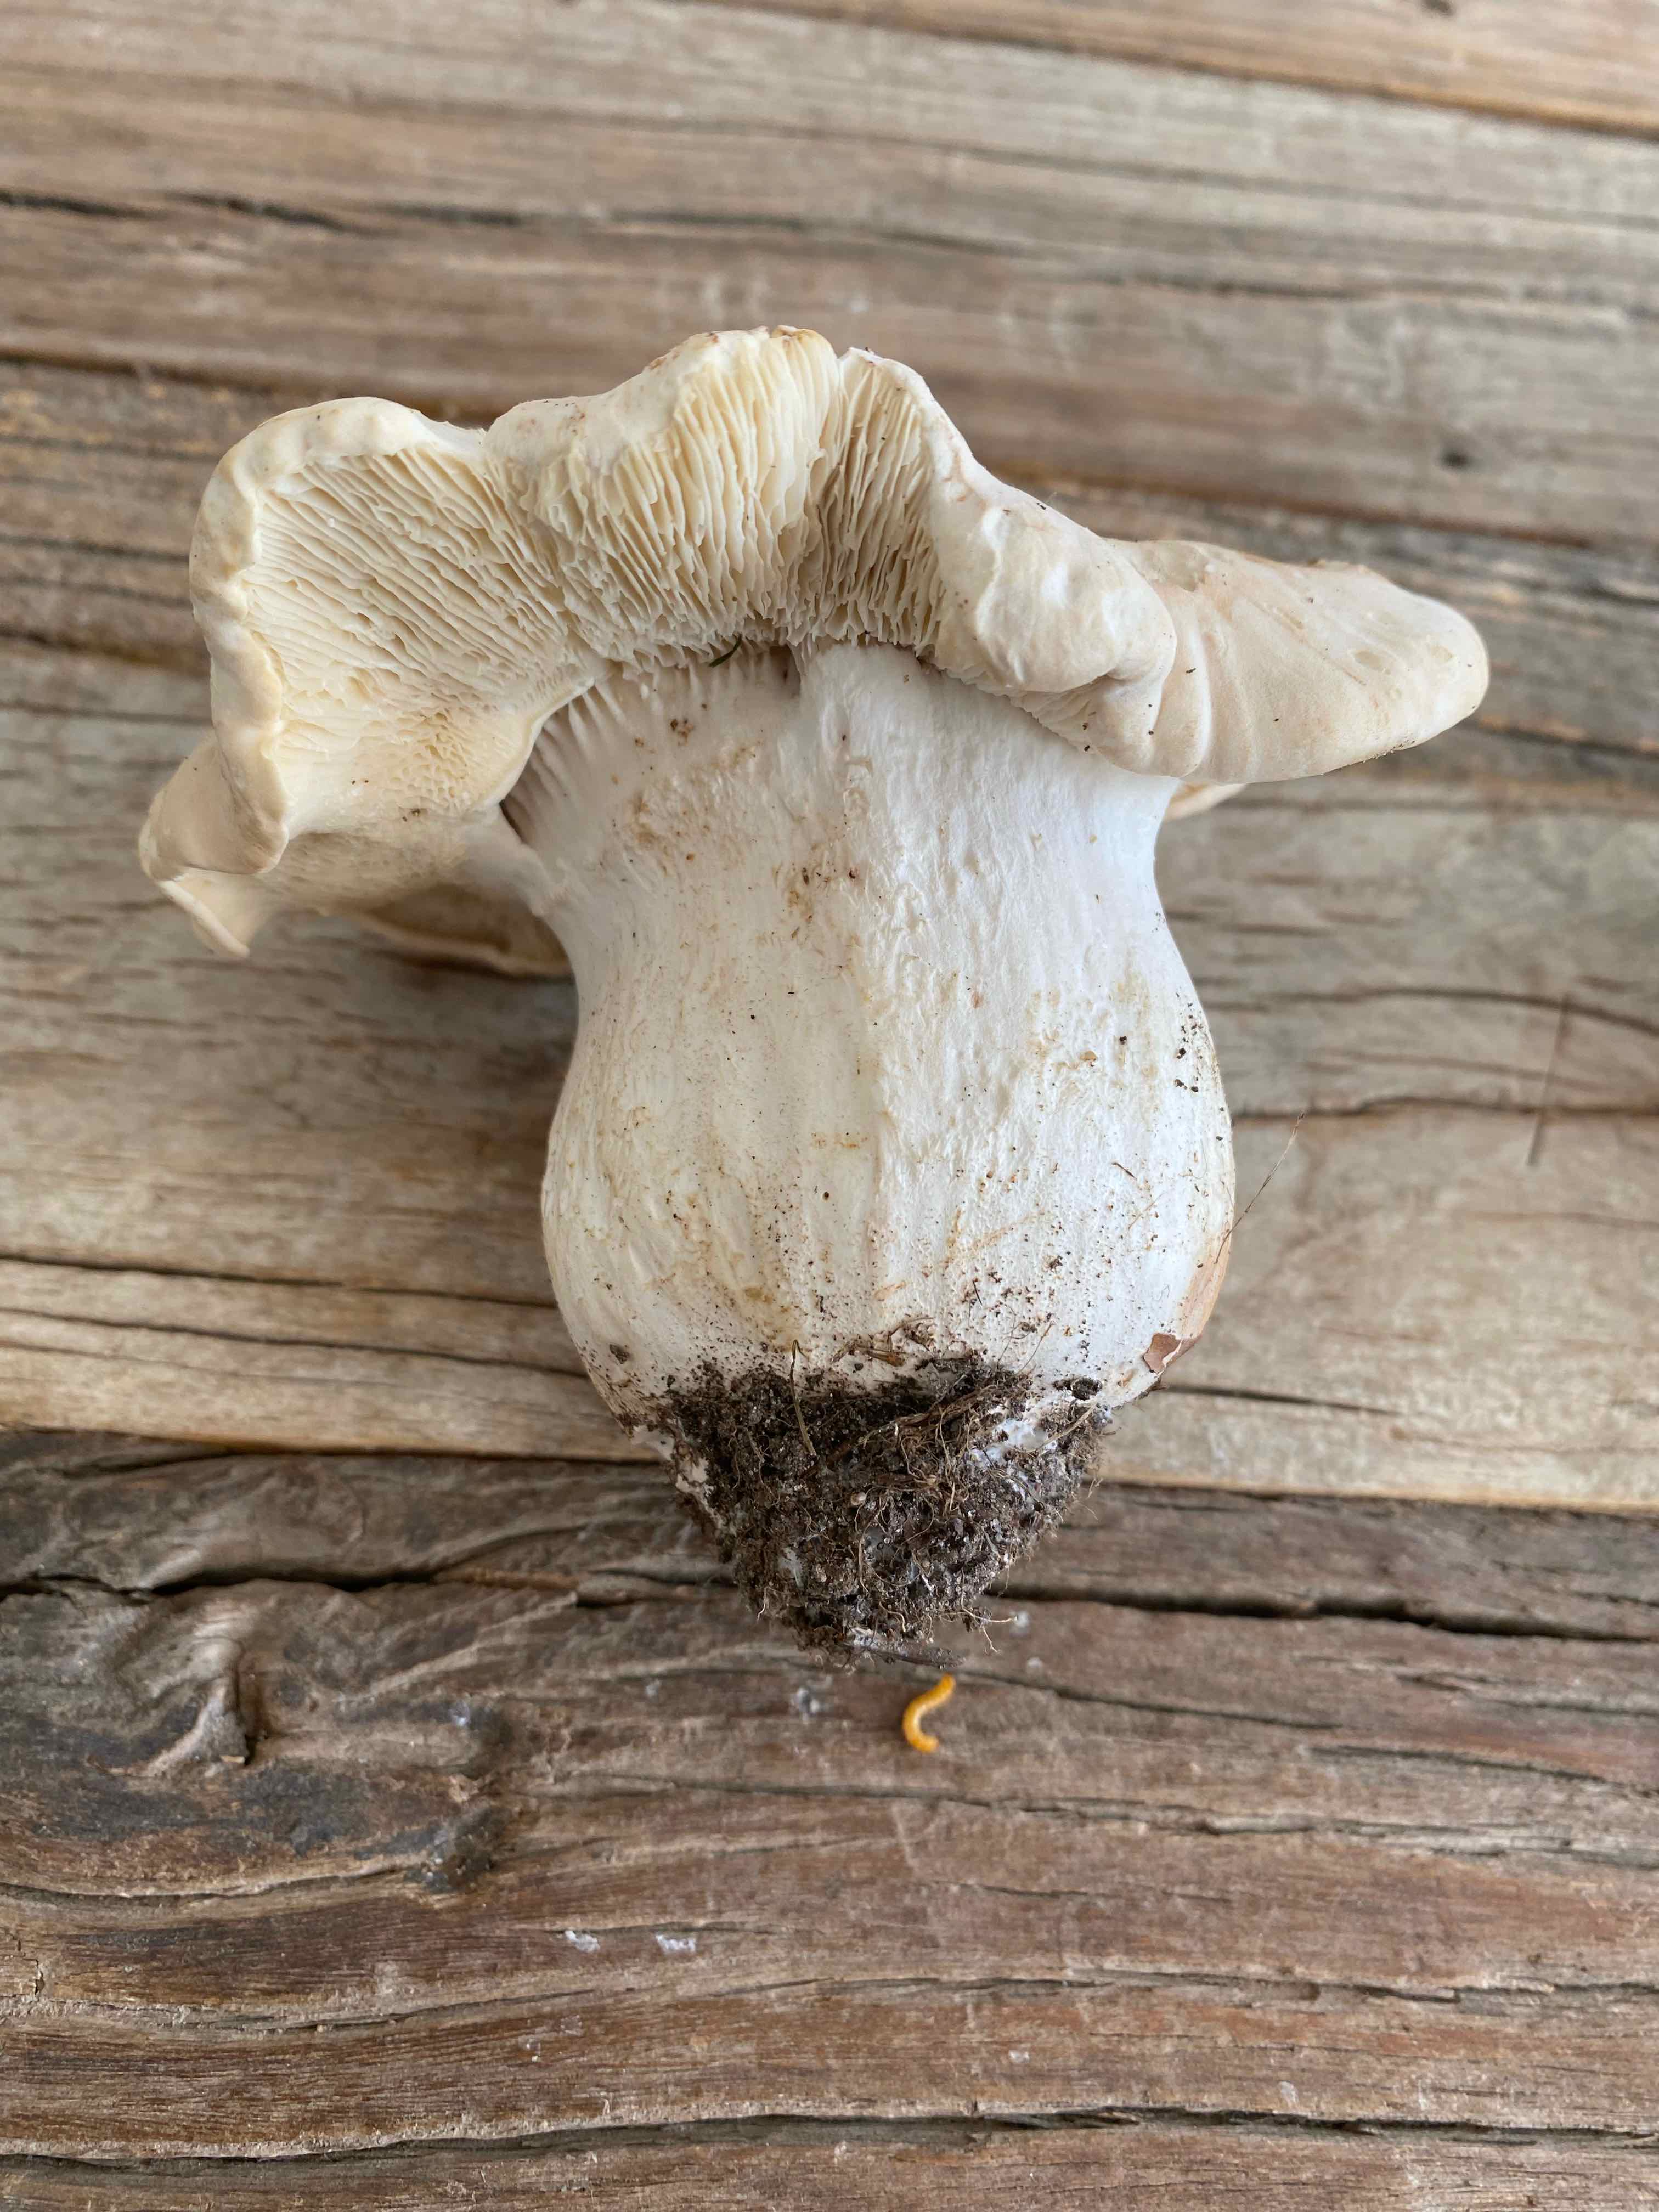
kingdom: Fungi
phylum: Basidiomycota
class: Agaricomycetes
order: Agaricales
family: Lyophyllaceae
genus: Calocybe
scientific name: Calocybe gambosa
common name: vårmusseron
